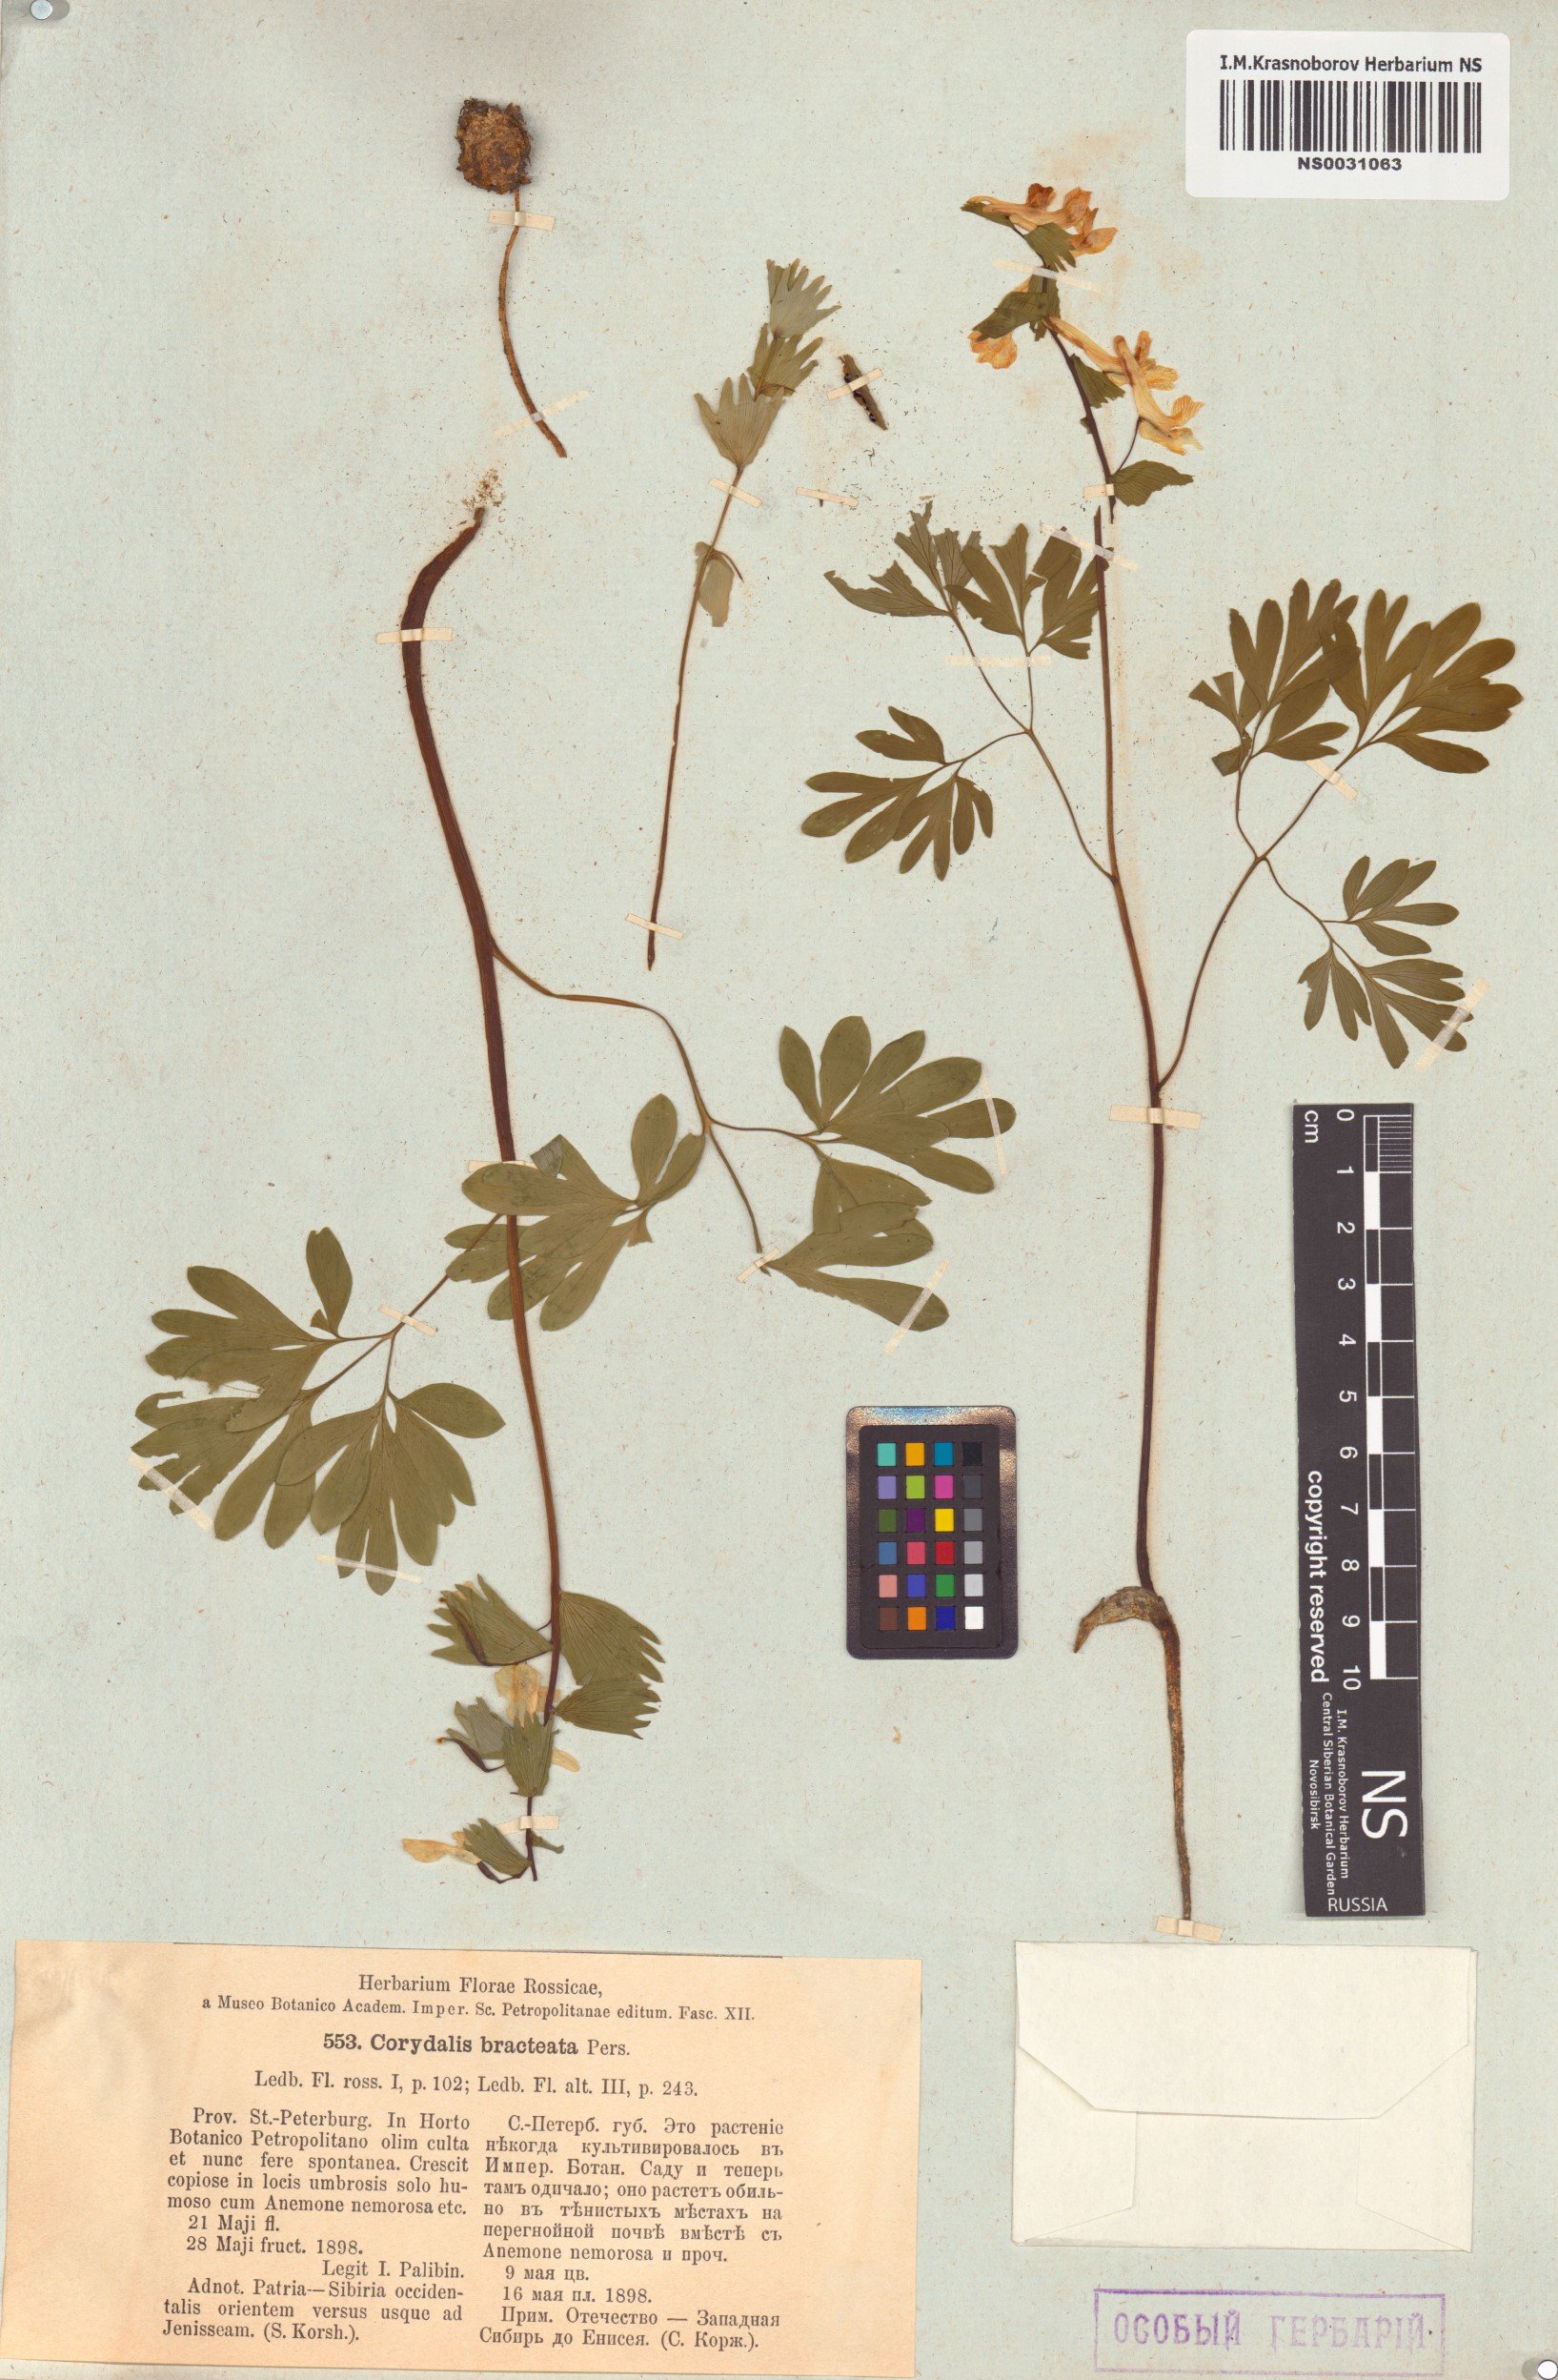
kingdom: Plantae
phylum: Tracheophyta
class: Magnoliopsida
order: Ranunculales
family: Papaveraceae
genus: Corydalis
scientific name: Corydalis bracteata
